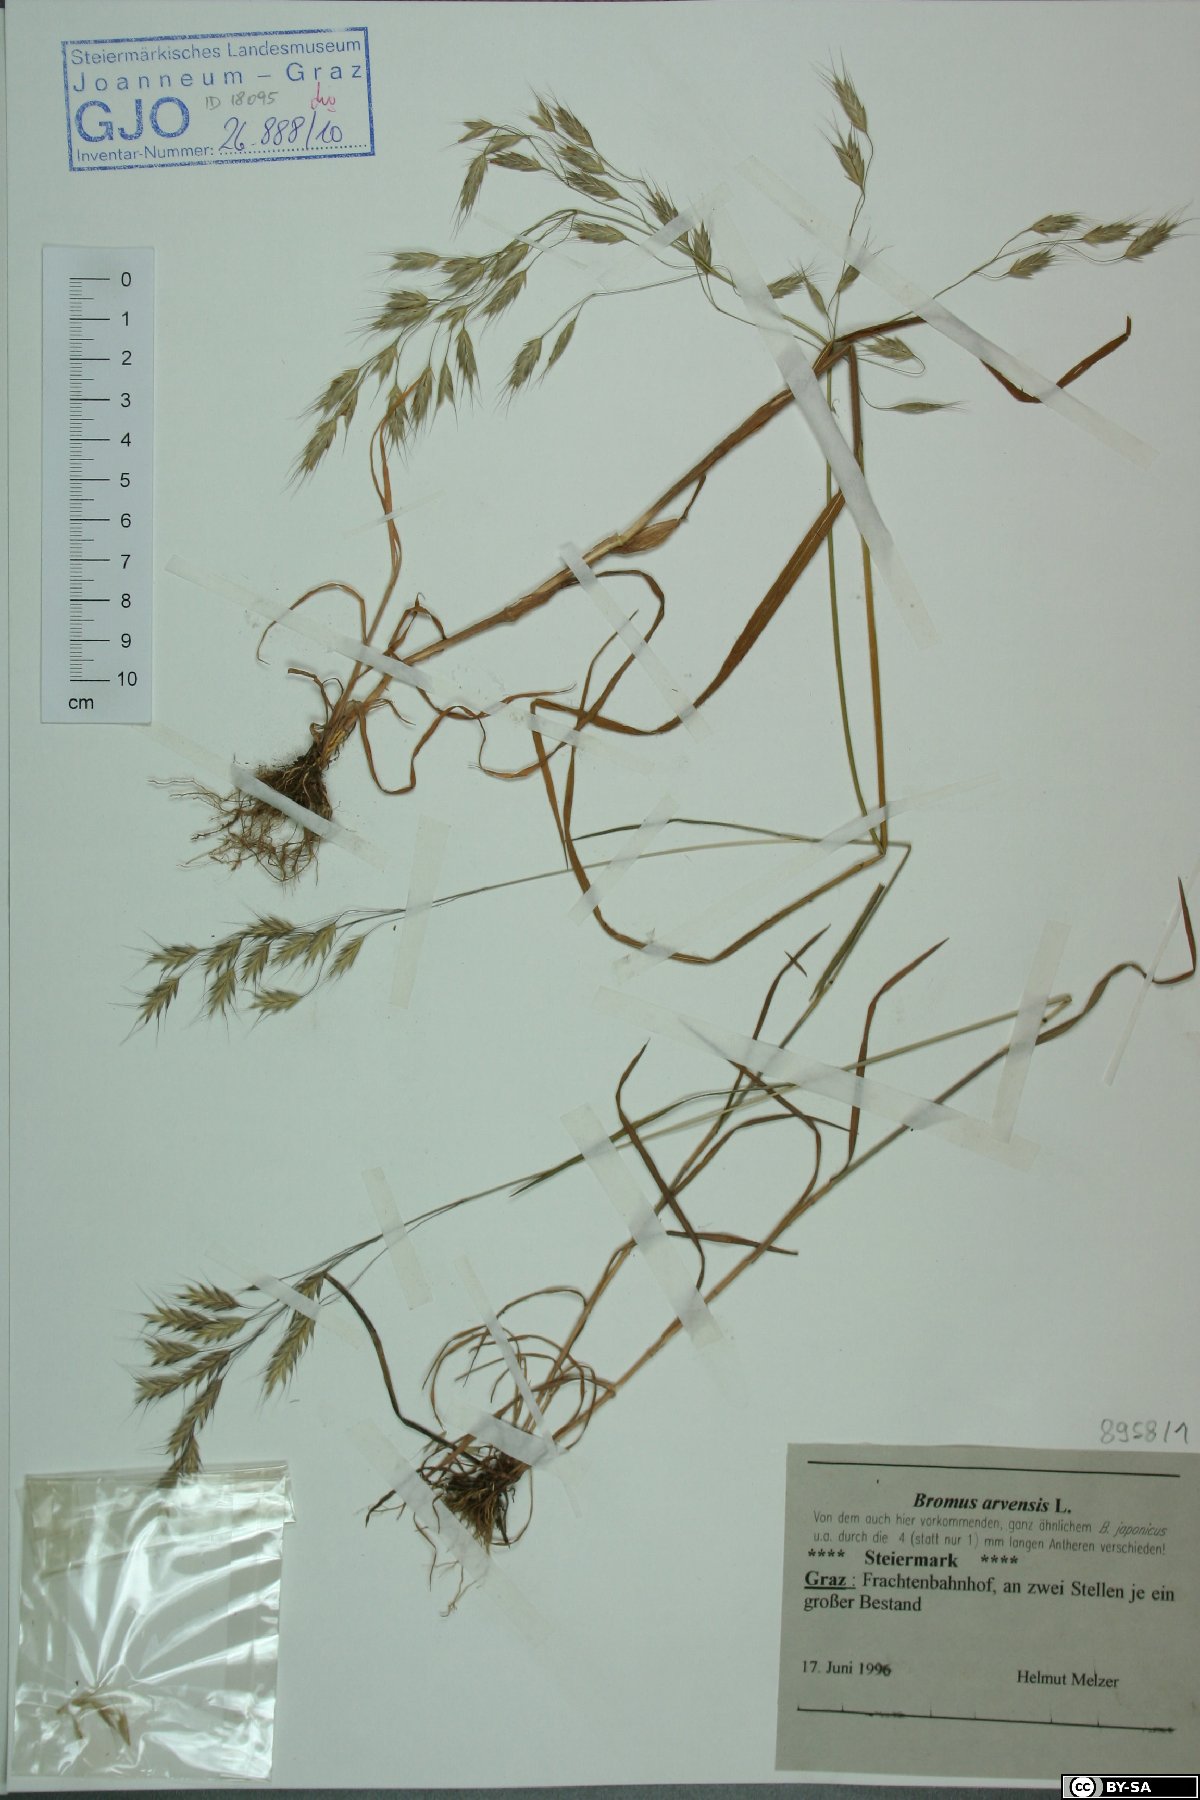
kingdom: Plantae
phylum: Tracheophyta
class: Liliopsida
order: Poales
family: Poaceae
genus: Bromus
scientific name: Bromus arvensis
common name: Field brome
